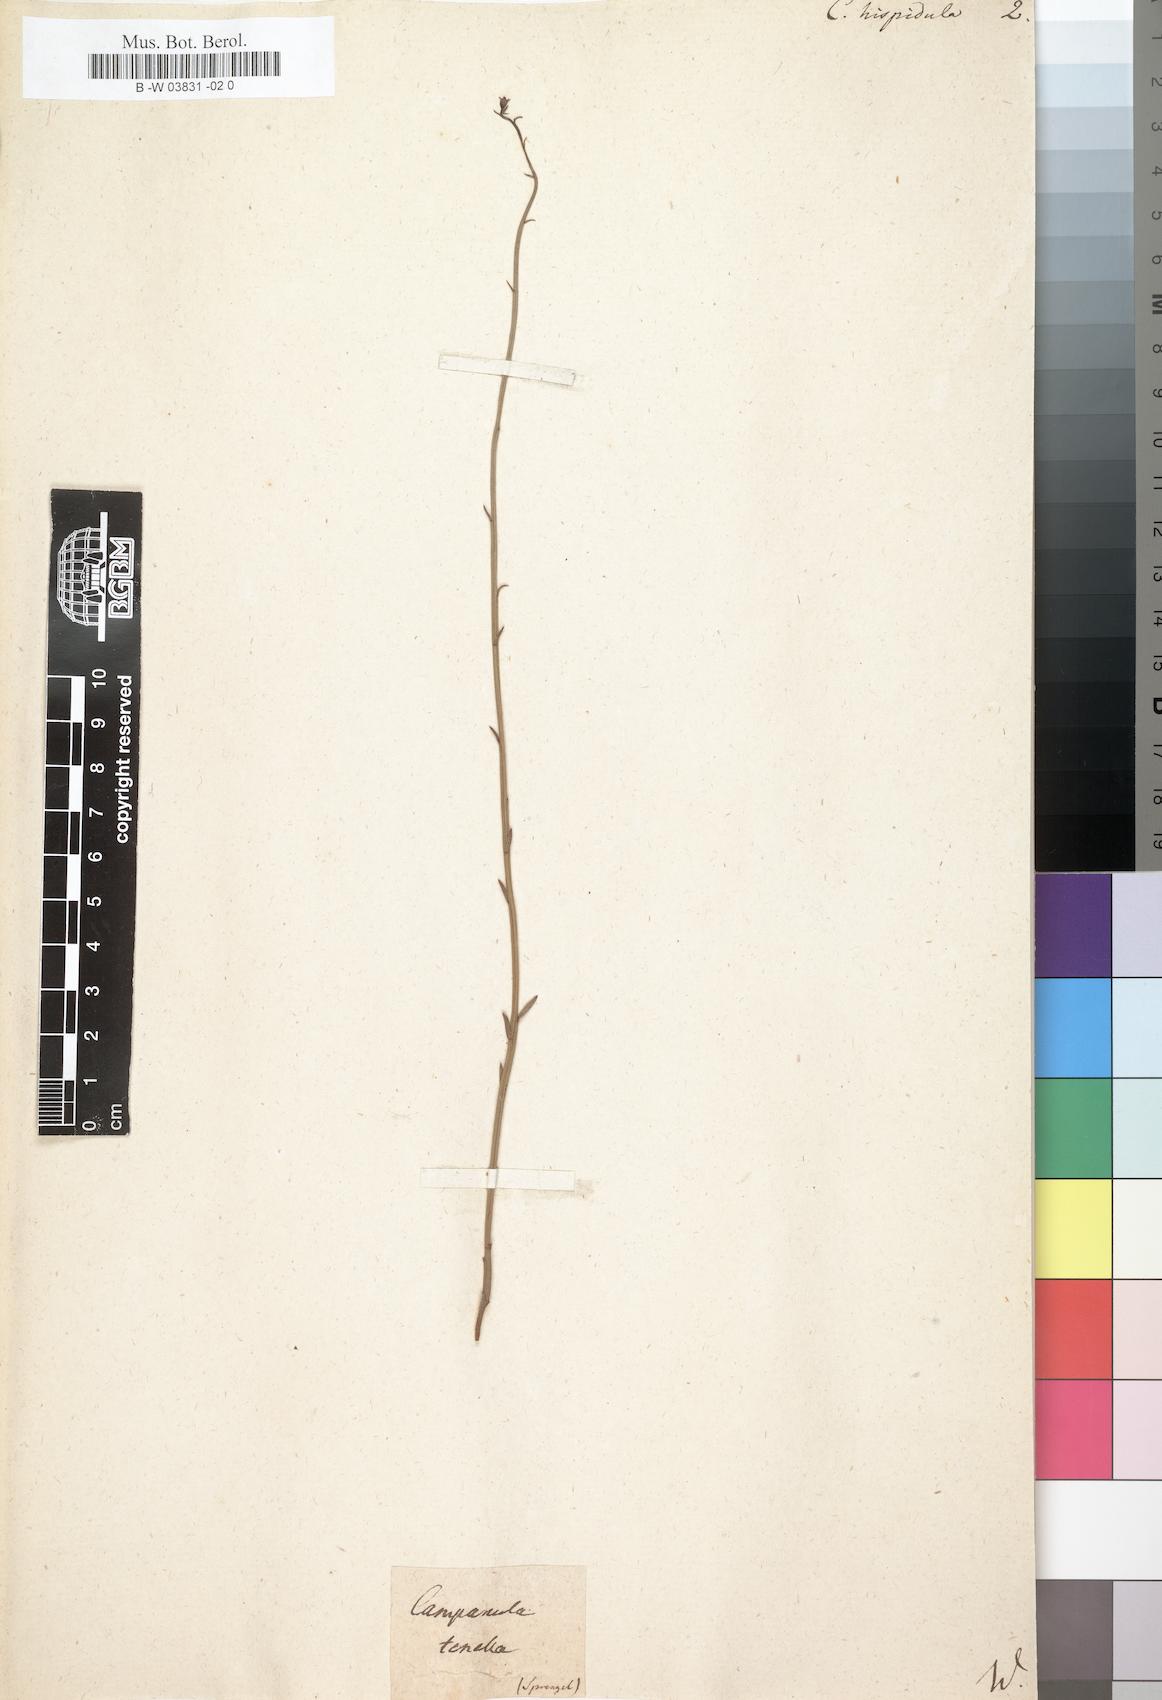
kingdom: Plantae
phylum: Tracheophyta
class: Magnoliopsida
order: Asterales
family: Campanulaceae
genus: Campanula
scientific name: Campanula hispidula
